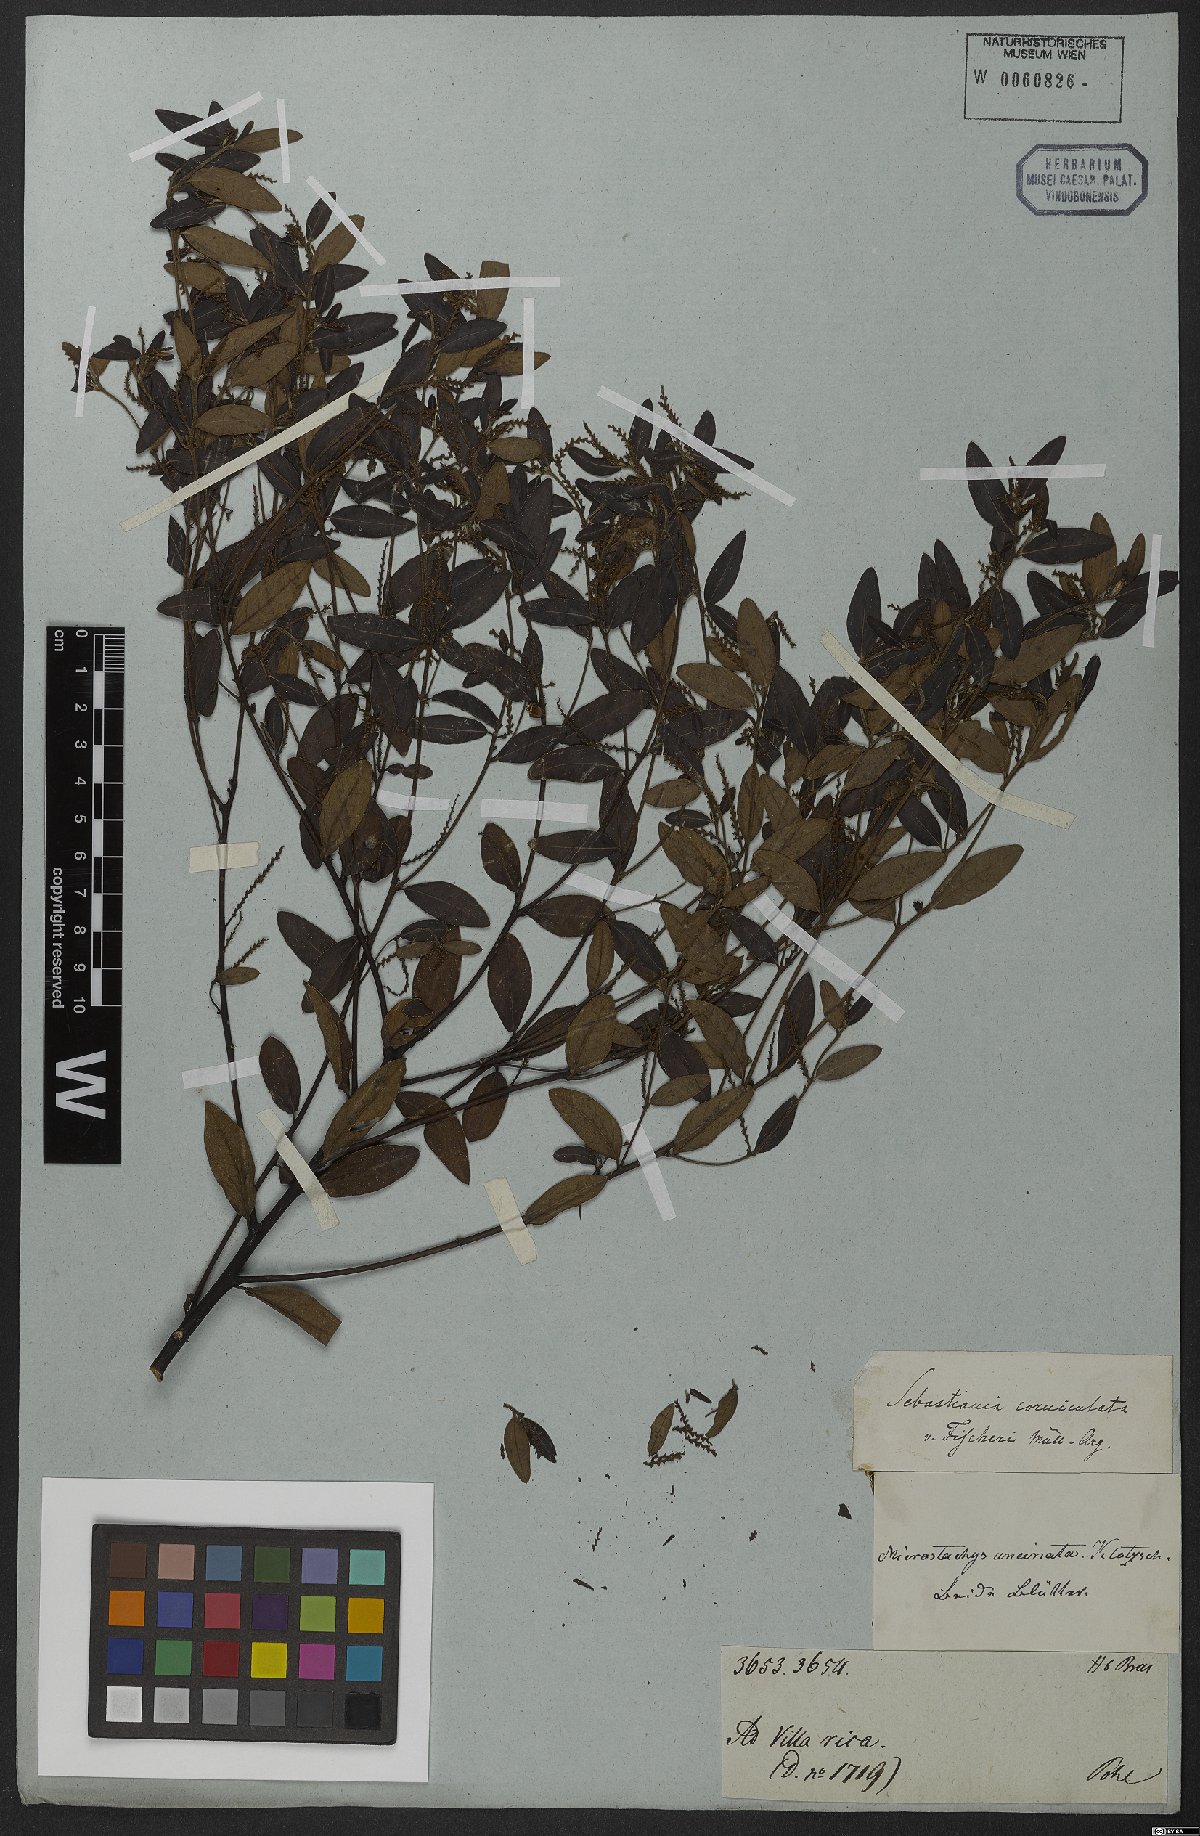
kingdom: Plantae
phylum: Tracheophyta
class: Magnoliopsida
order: Malpighiales
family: Euphorbiaceae
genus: Microstachys
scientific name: Microstachys salicifolia
